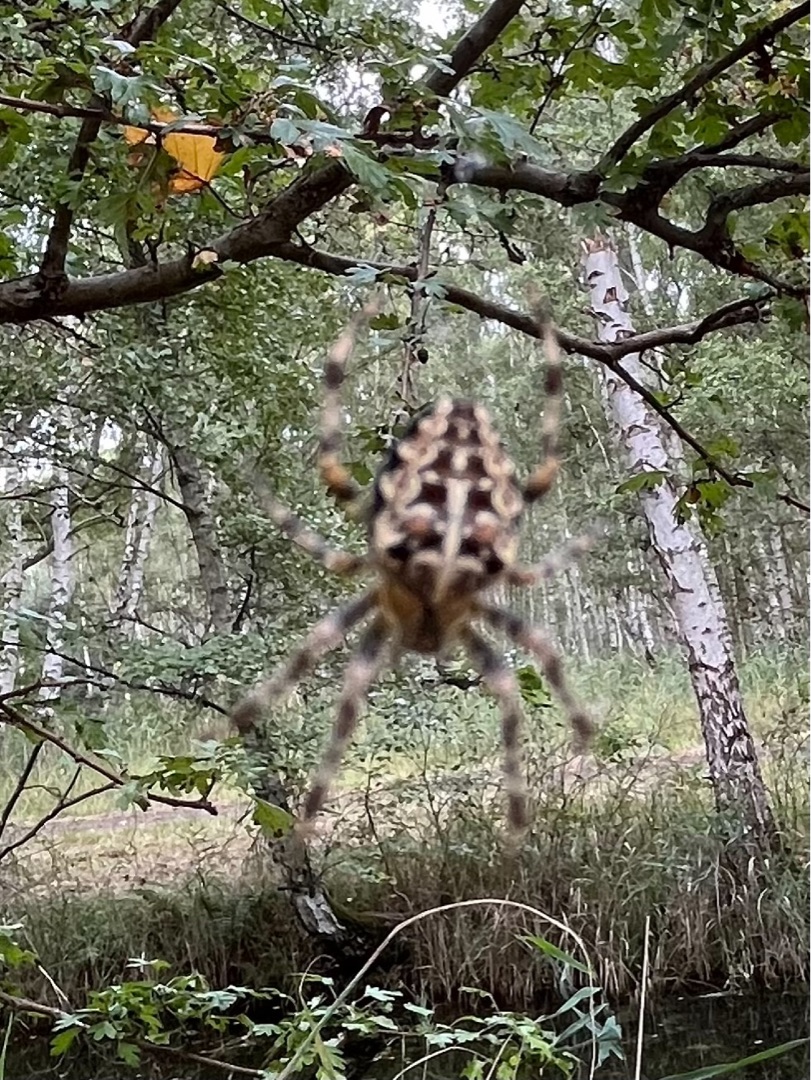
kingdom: Animalia
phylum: Arthropoda
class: Arachnida
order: Araneae
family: Araneidae
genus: Araneus
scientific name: Araneus diadematus
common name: Korsedderkop
